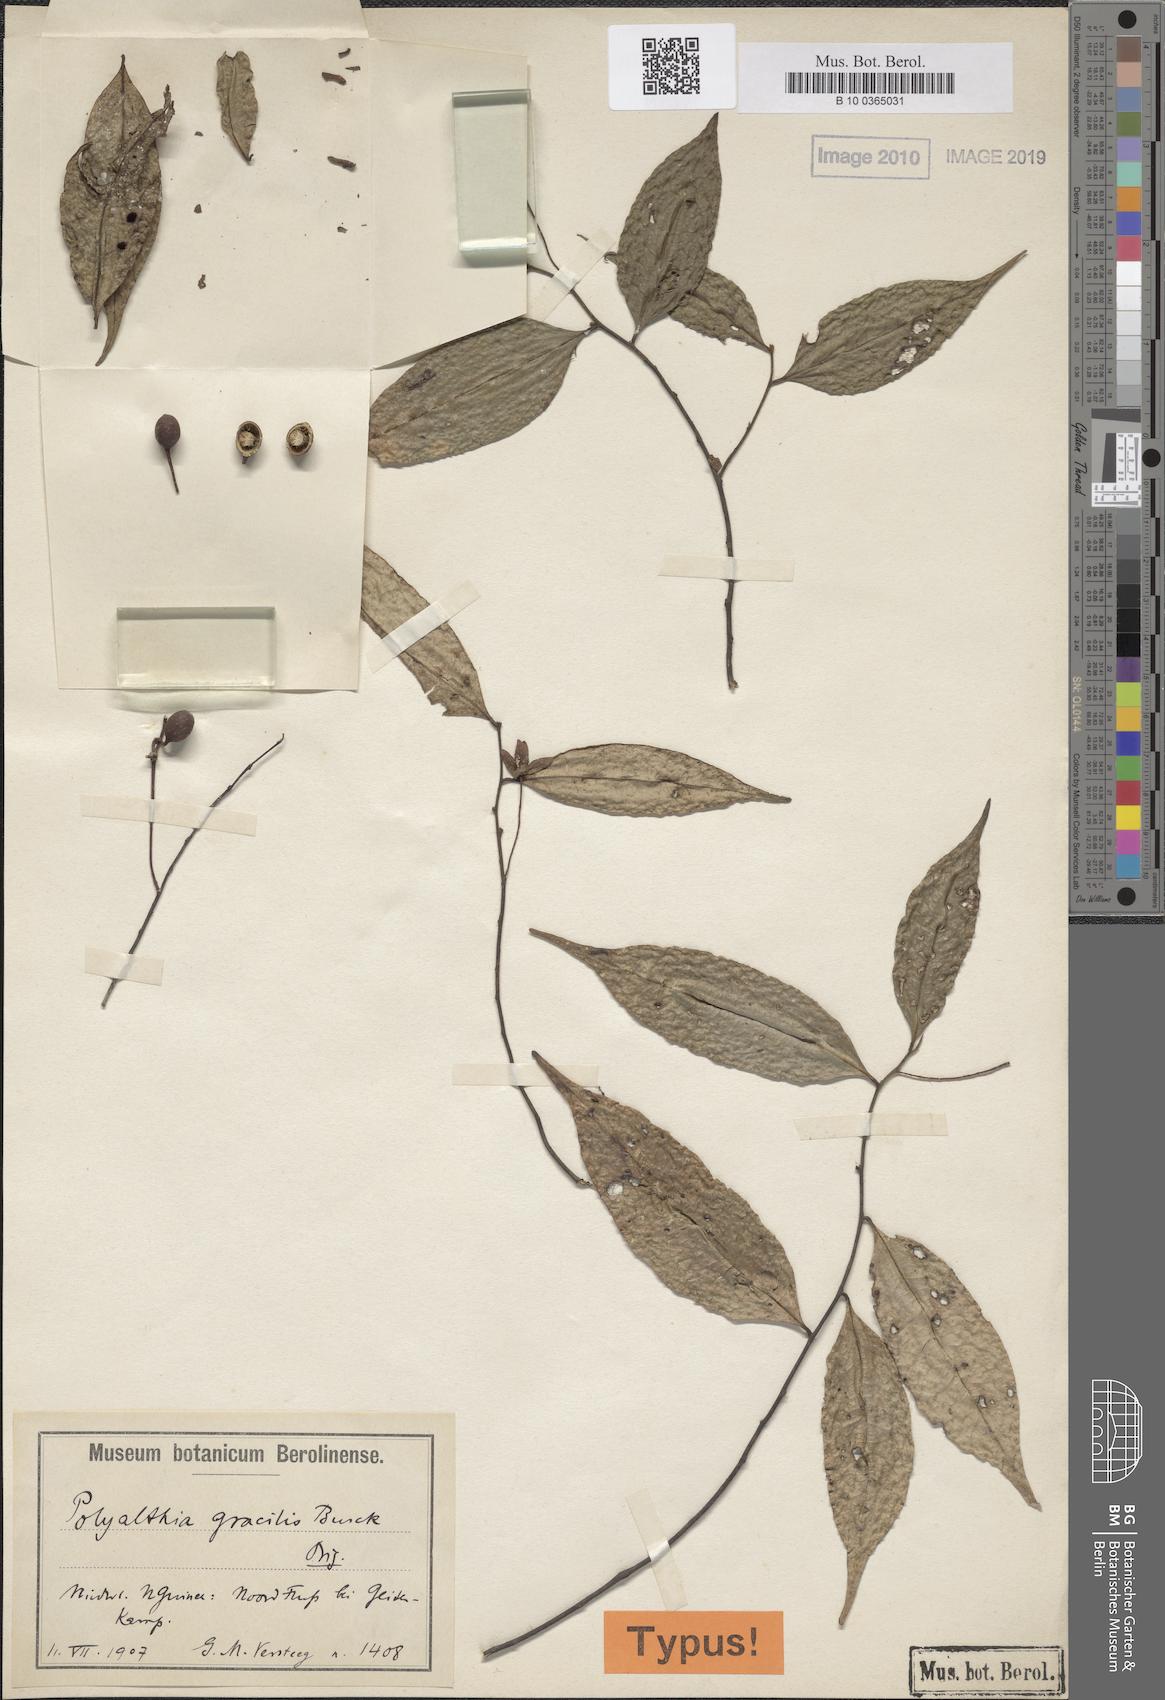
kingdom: Plantae
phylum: Tracheophyta
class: Magnoliopsida
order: Magnoliales
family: Annonaceae
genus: Hubera
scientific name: Hubera gracilis
